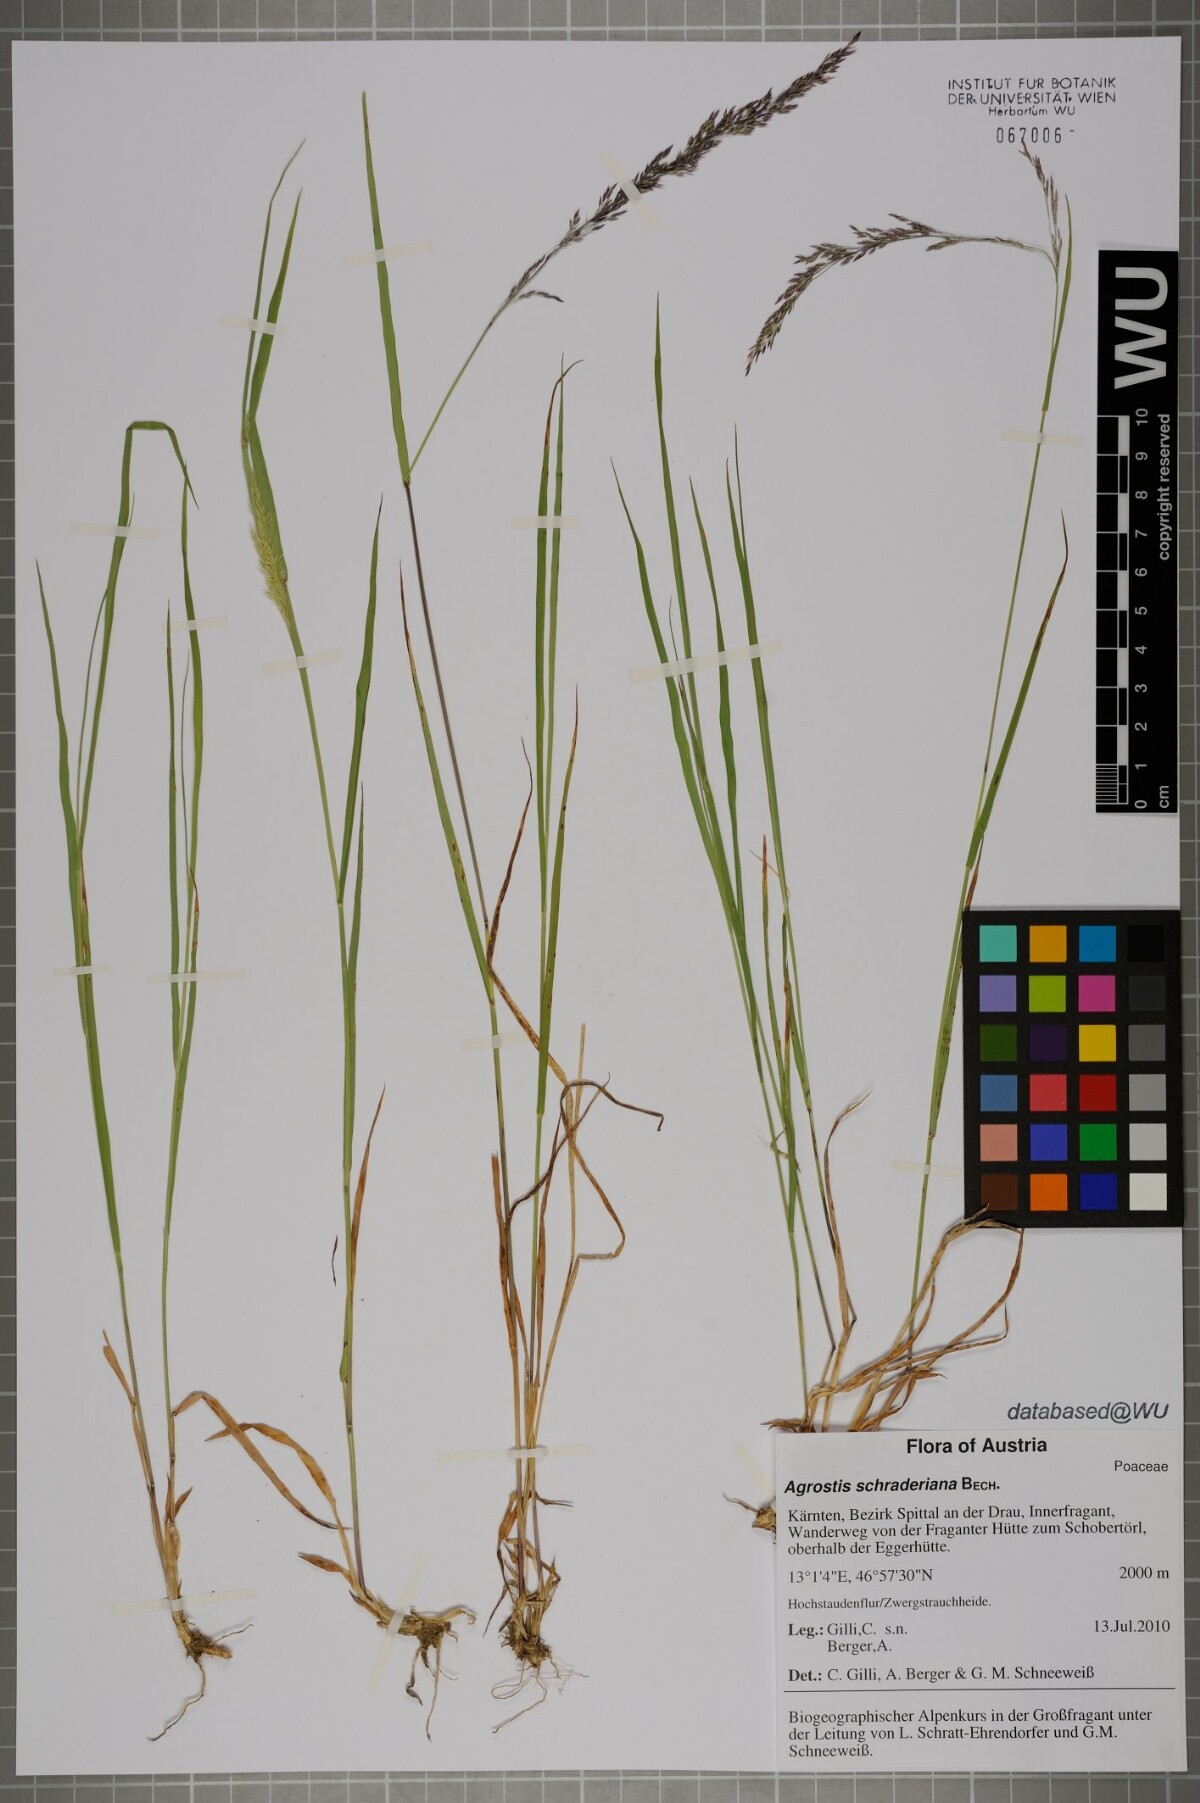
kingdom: Plantae
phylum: Tracheophyta
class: Liliopsida
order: Poales
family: Poaceae
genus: Agrostis
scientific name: Agrostis schraderiana
